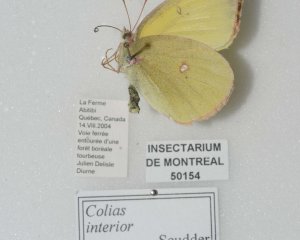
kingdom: Animalia
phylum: Arthropoda
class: Insecta
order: Lepidoptera
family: Pieridae
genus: Colias
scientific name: Colias interior
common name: Pink-edged Sulphur
